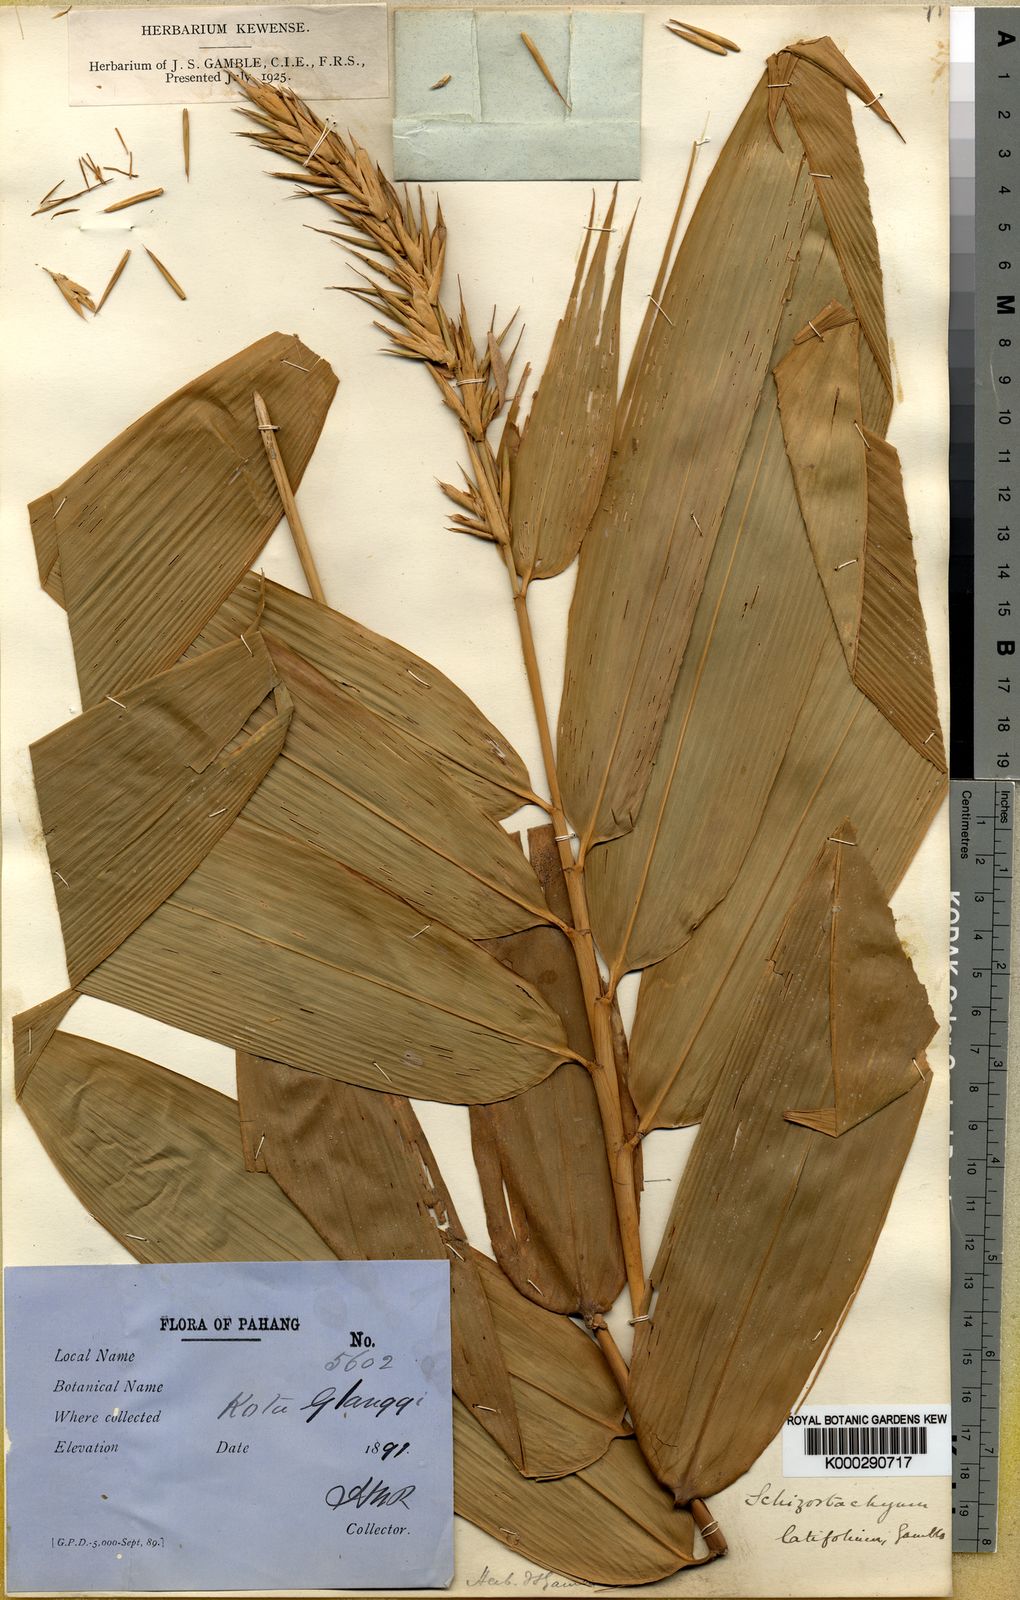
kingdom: Plantae
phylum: Tracheophyta
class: Liliopsida
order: Poales
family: Poaceae
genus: Schizostachyum
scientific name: Schizostachyum latifolium
